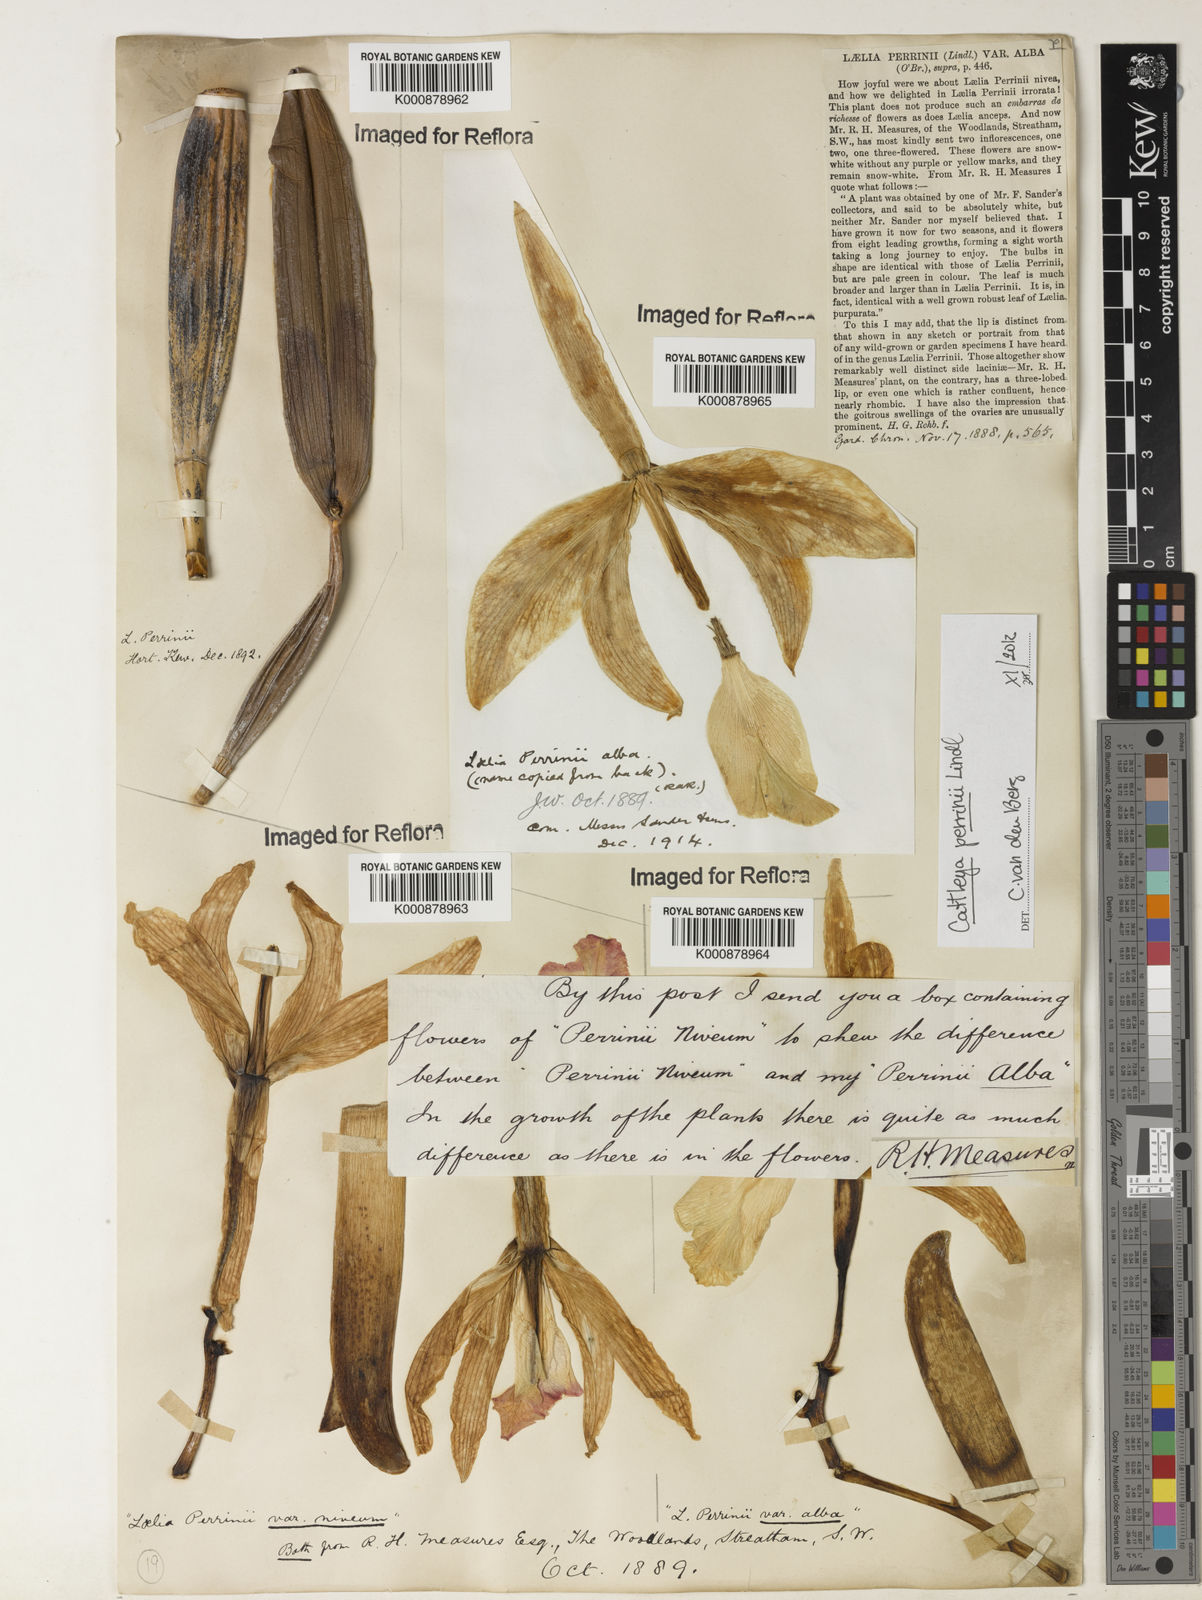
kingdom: Plantae
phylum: Tracheophyta
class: Liliopsida
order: Asparagales
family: Orchidaceae
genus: Cattleya
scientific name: Cattleya labiata
